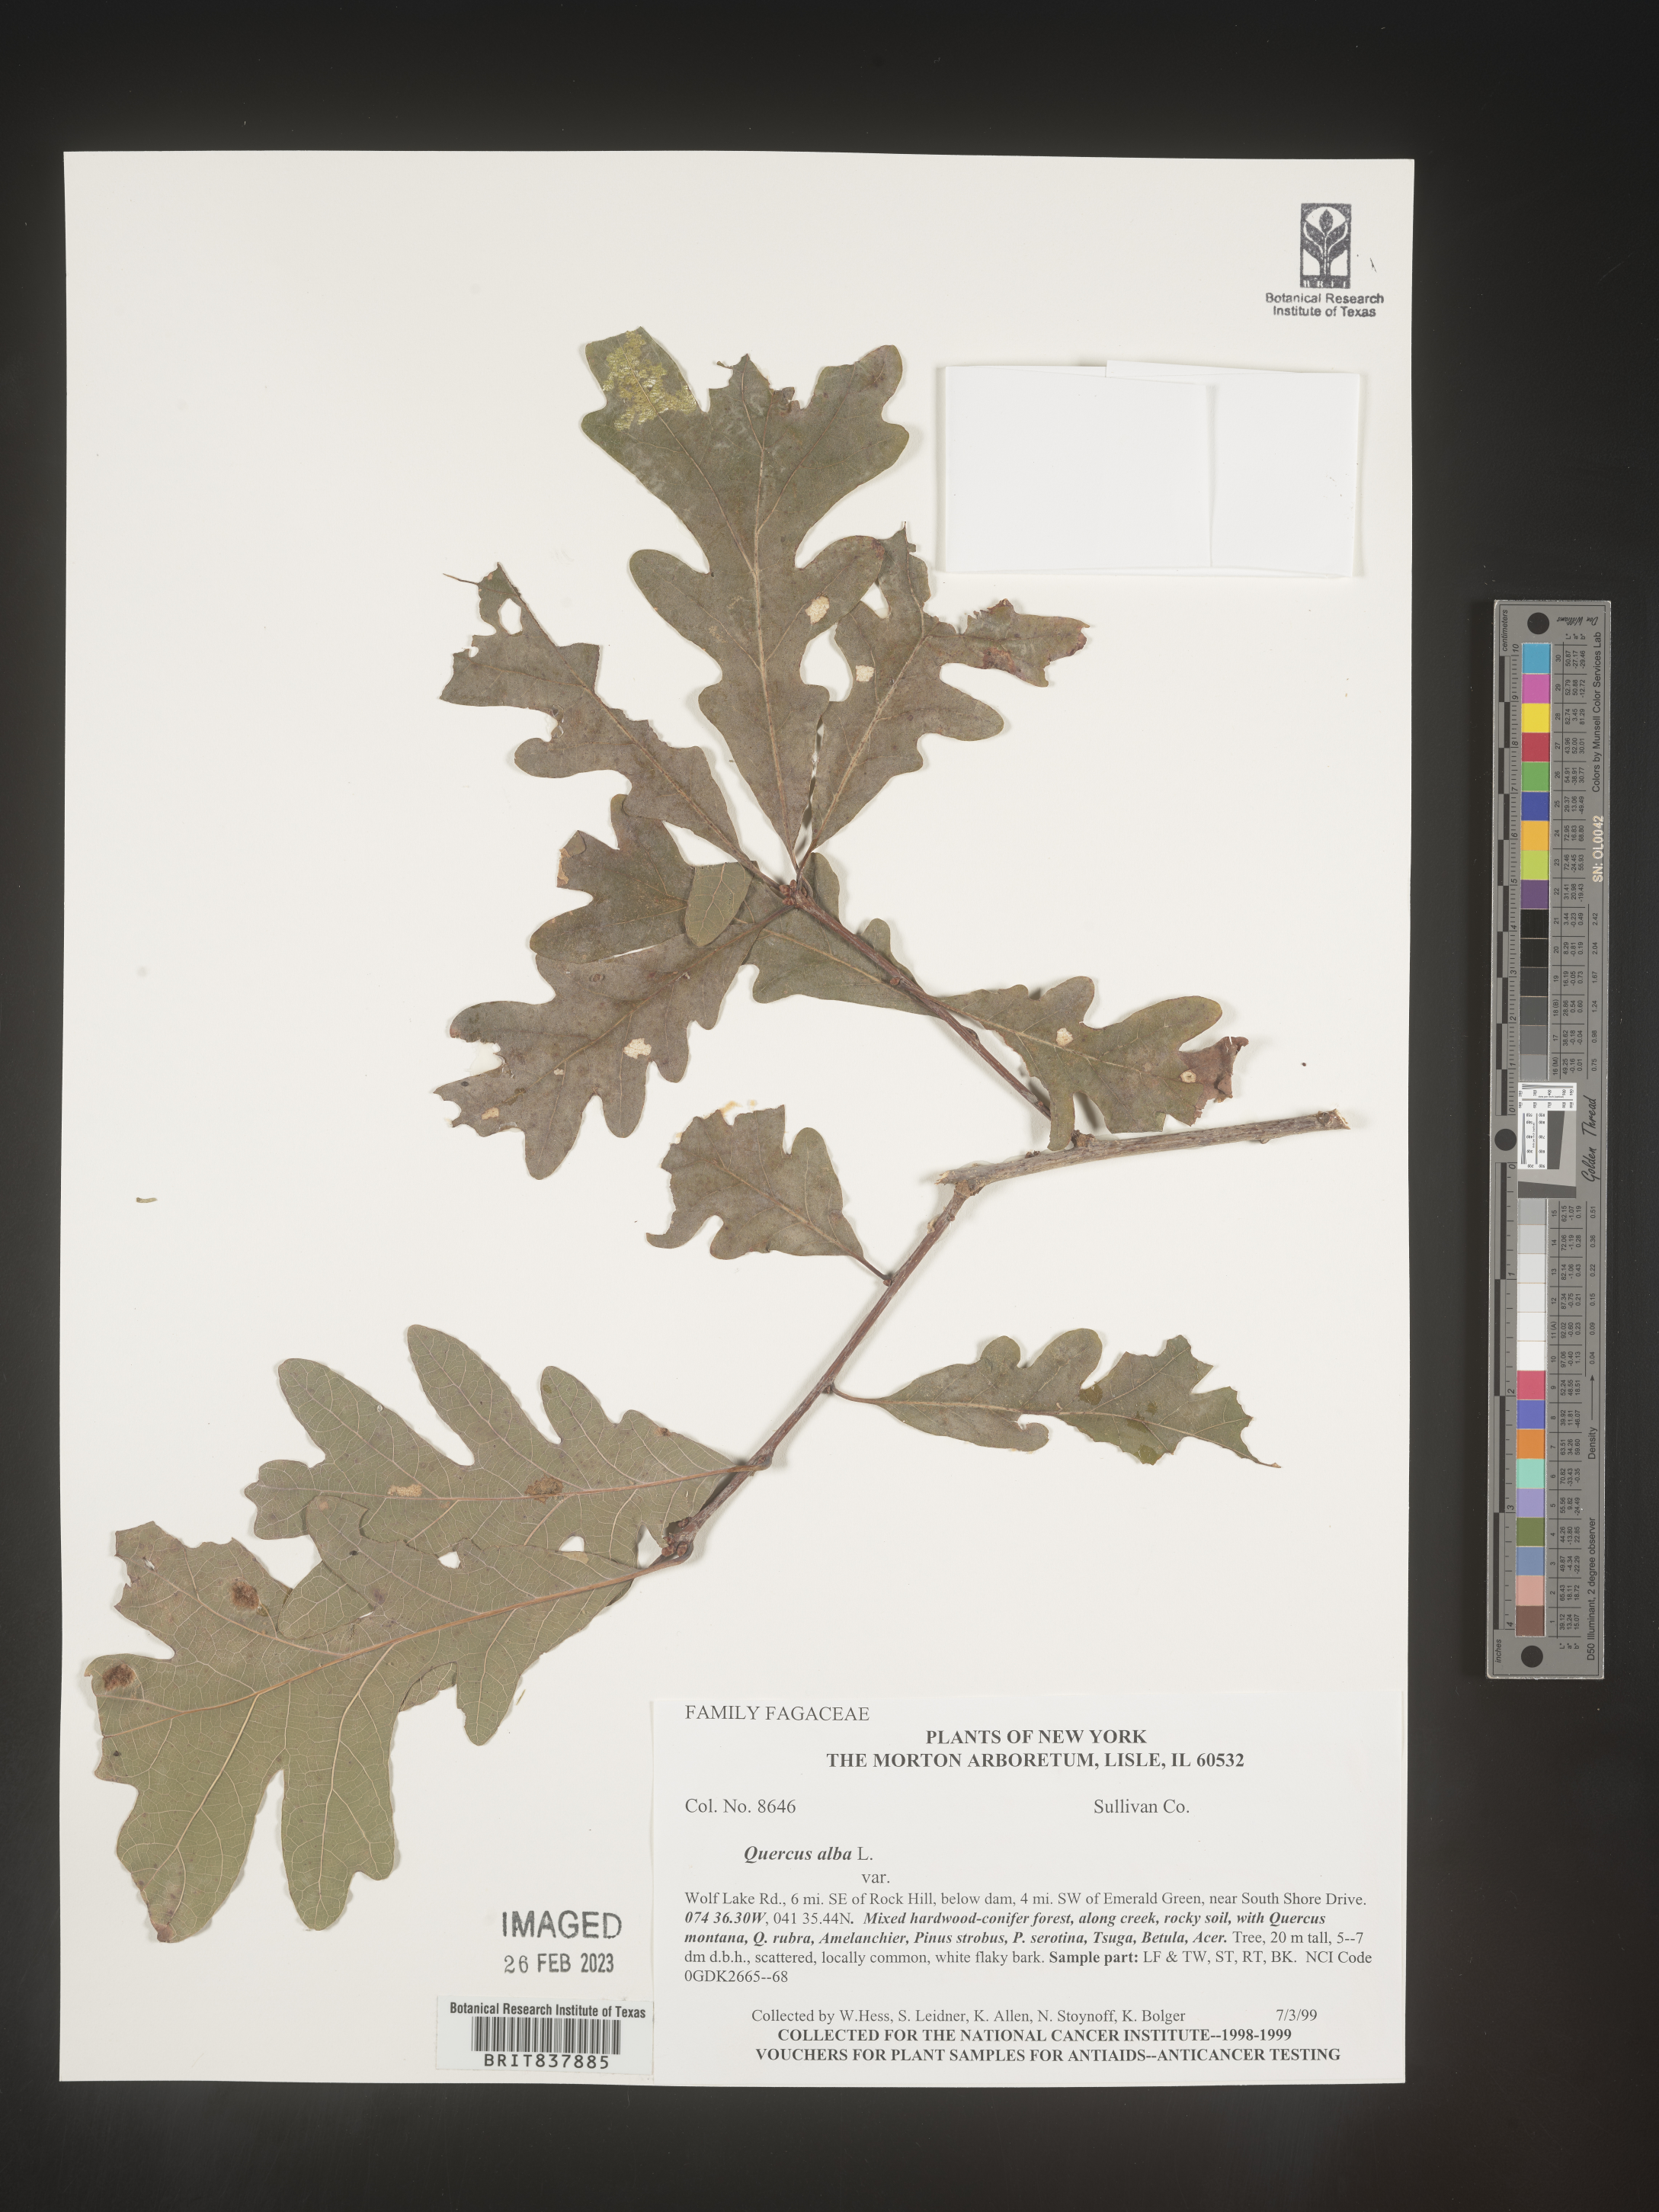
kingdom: Plantae
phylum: Tracheophyta
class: Magnoliopsida
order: Fagales
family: Fagaceae
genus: Quercus
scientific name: Quercus alba
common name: White oak
